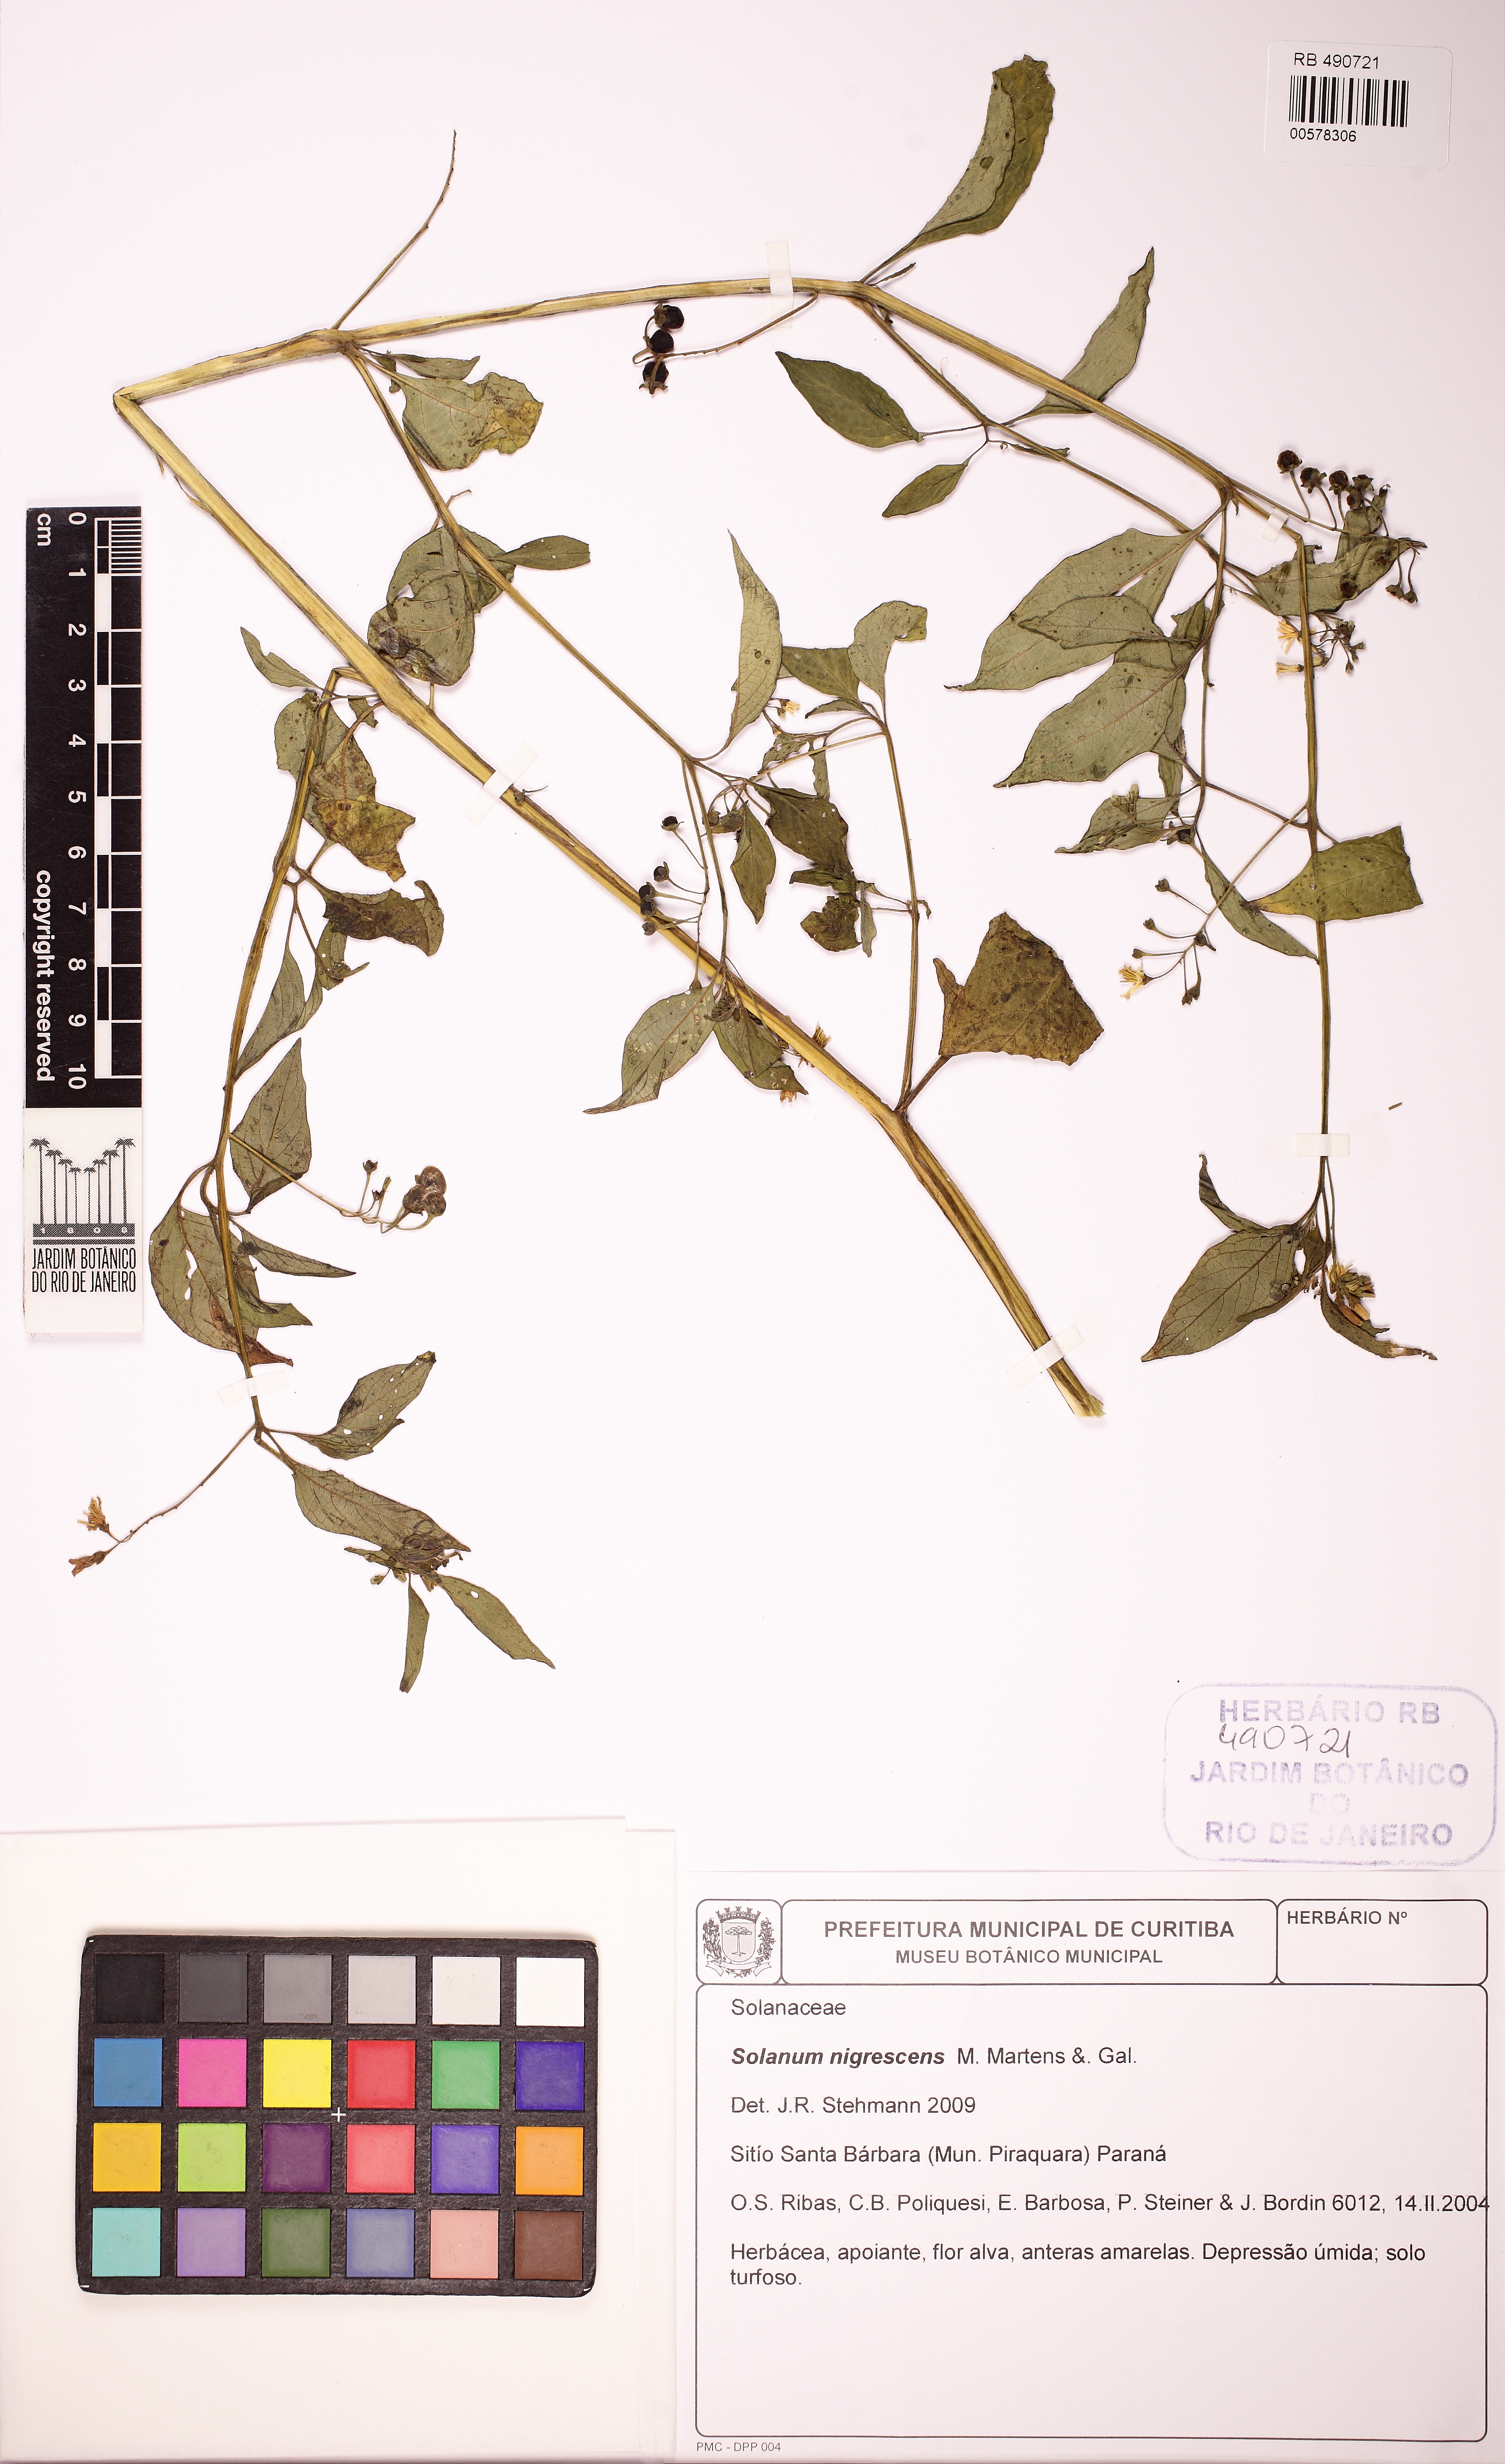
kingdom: Plantae
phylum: Tracheophyta
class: Magnoliopsida
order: Solanales
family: Solanaceae
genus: Solanum
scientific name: Solanum paucidens
